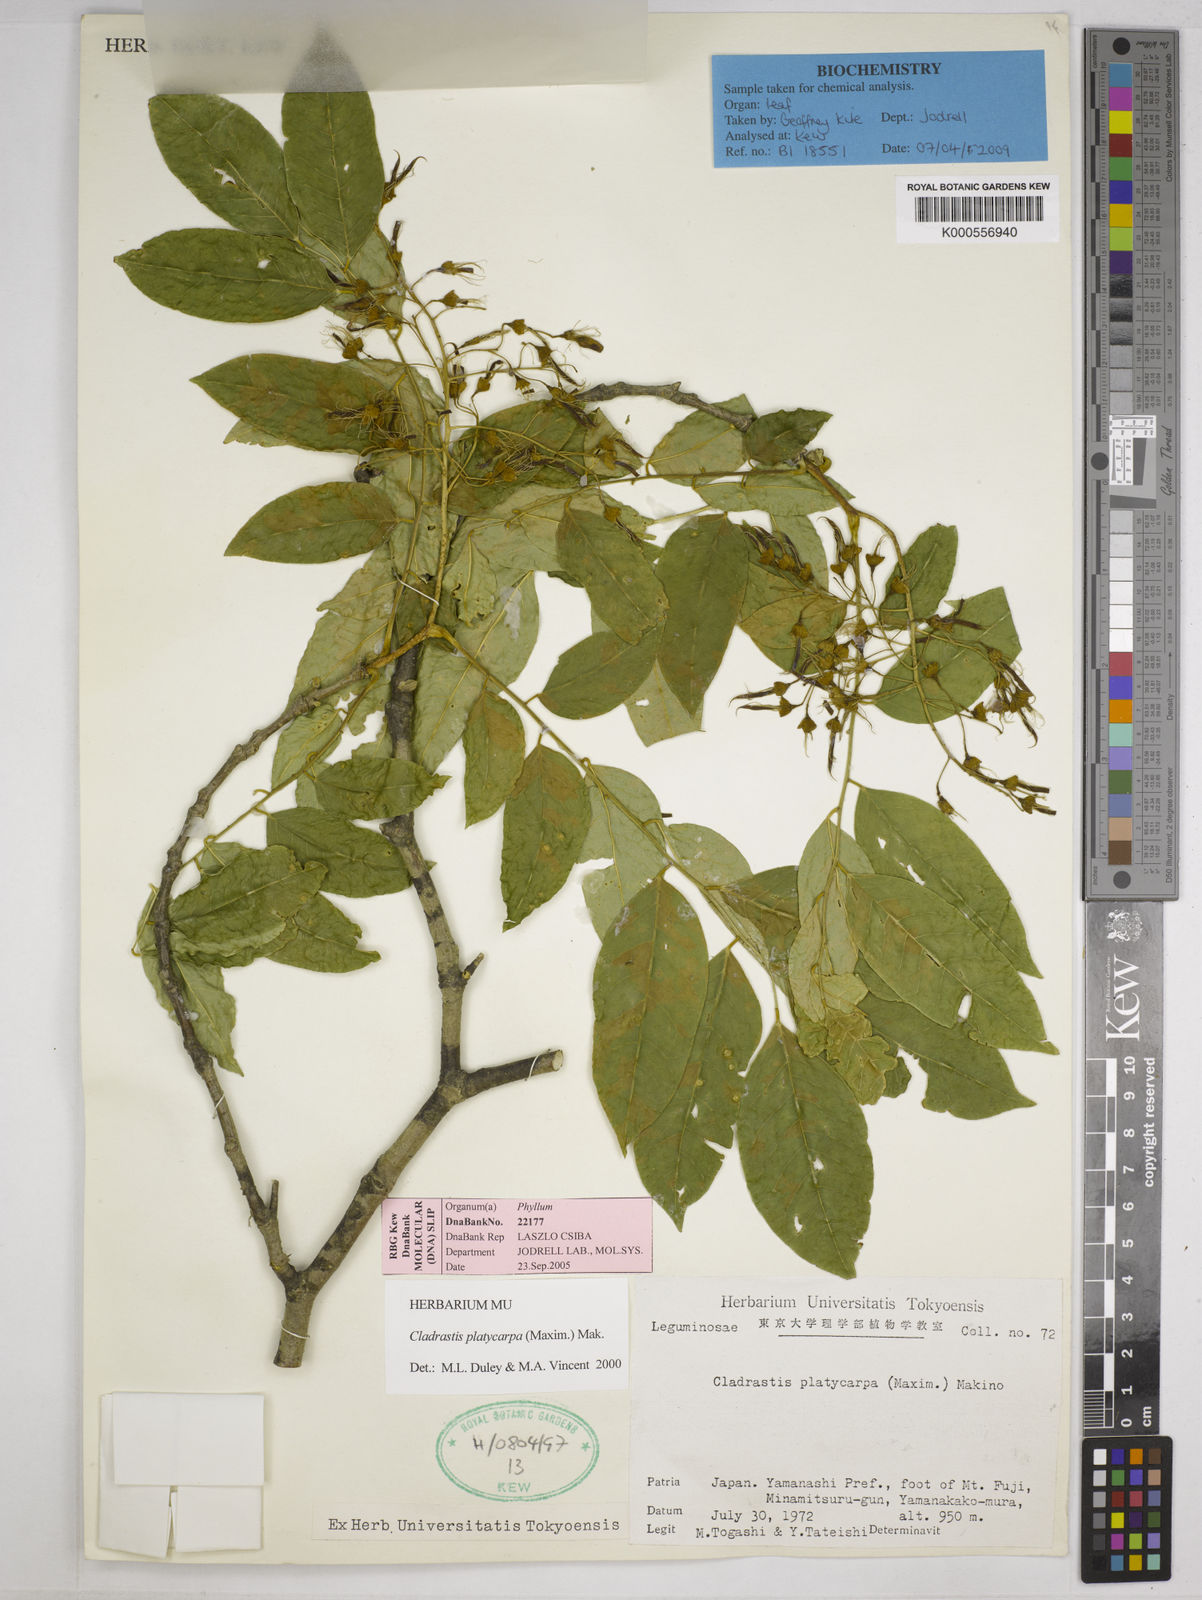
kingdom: Plantae
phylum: Tracheophyta
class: Magnoliopsida
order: Fabales
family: Fabaceae
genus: Platyosprion
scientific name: Platyosprion platycarpum
